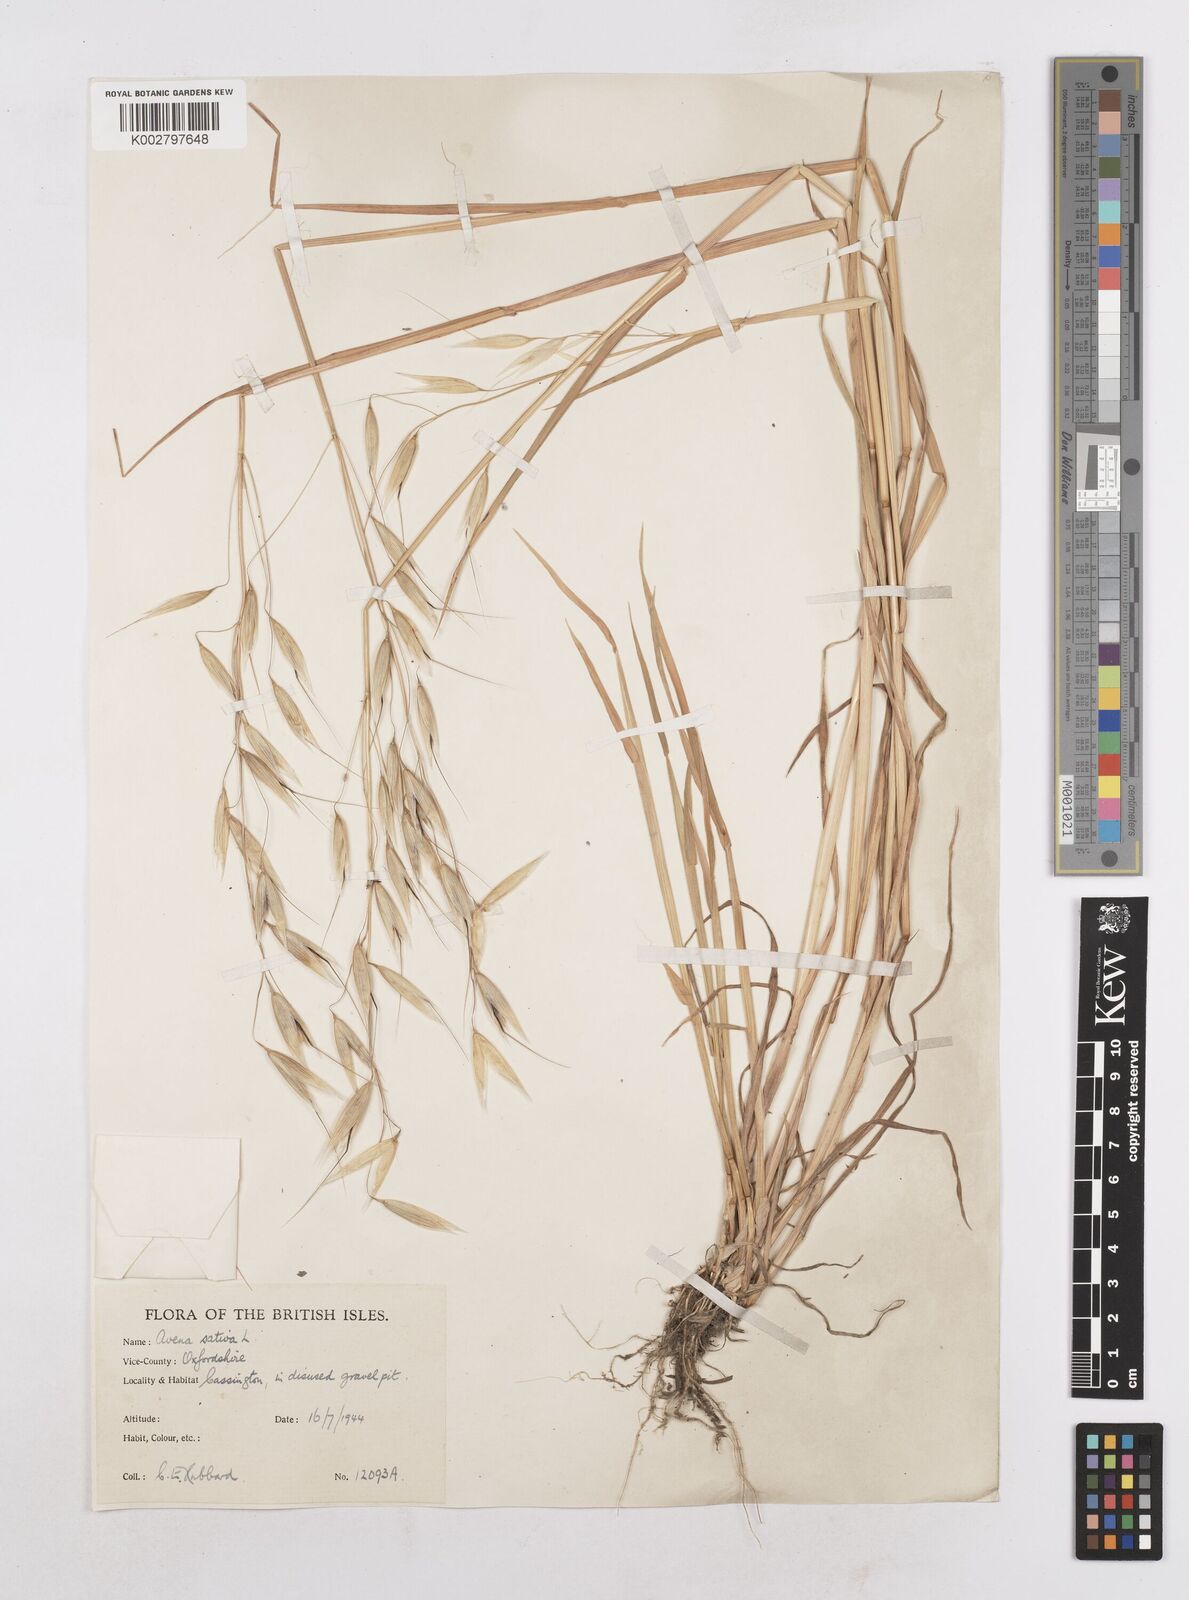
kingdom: Plantae
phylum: Tracheophyta
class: Liliopsida
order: Poales
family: Poaceae
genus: Avena
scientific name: Avena byzantina
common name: Algerian oat
